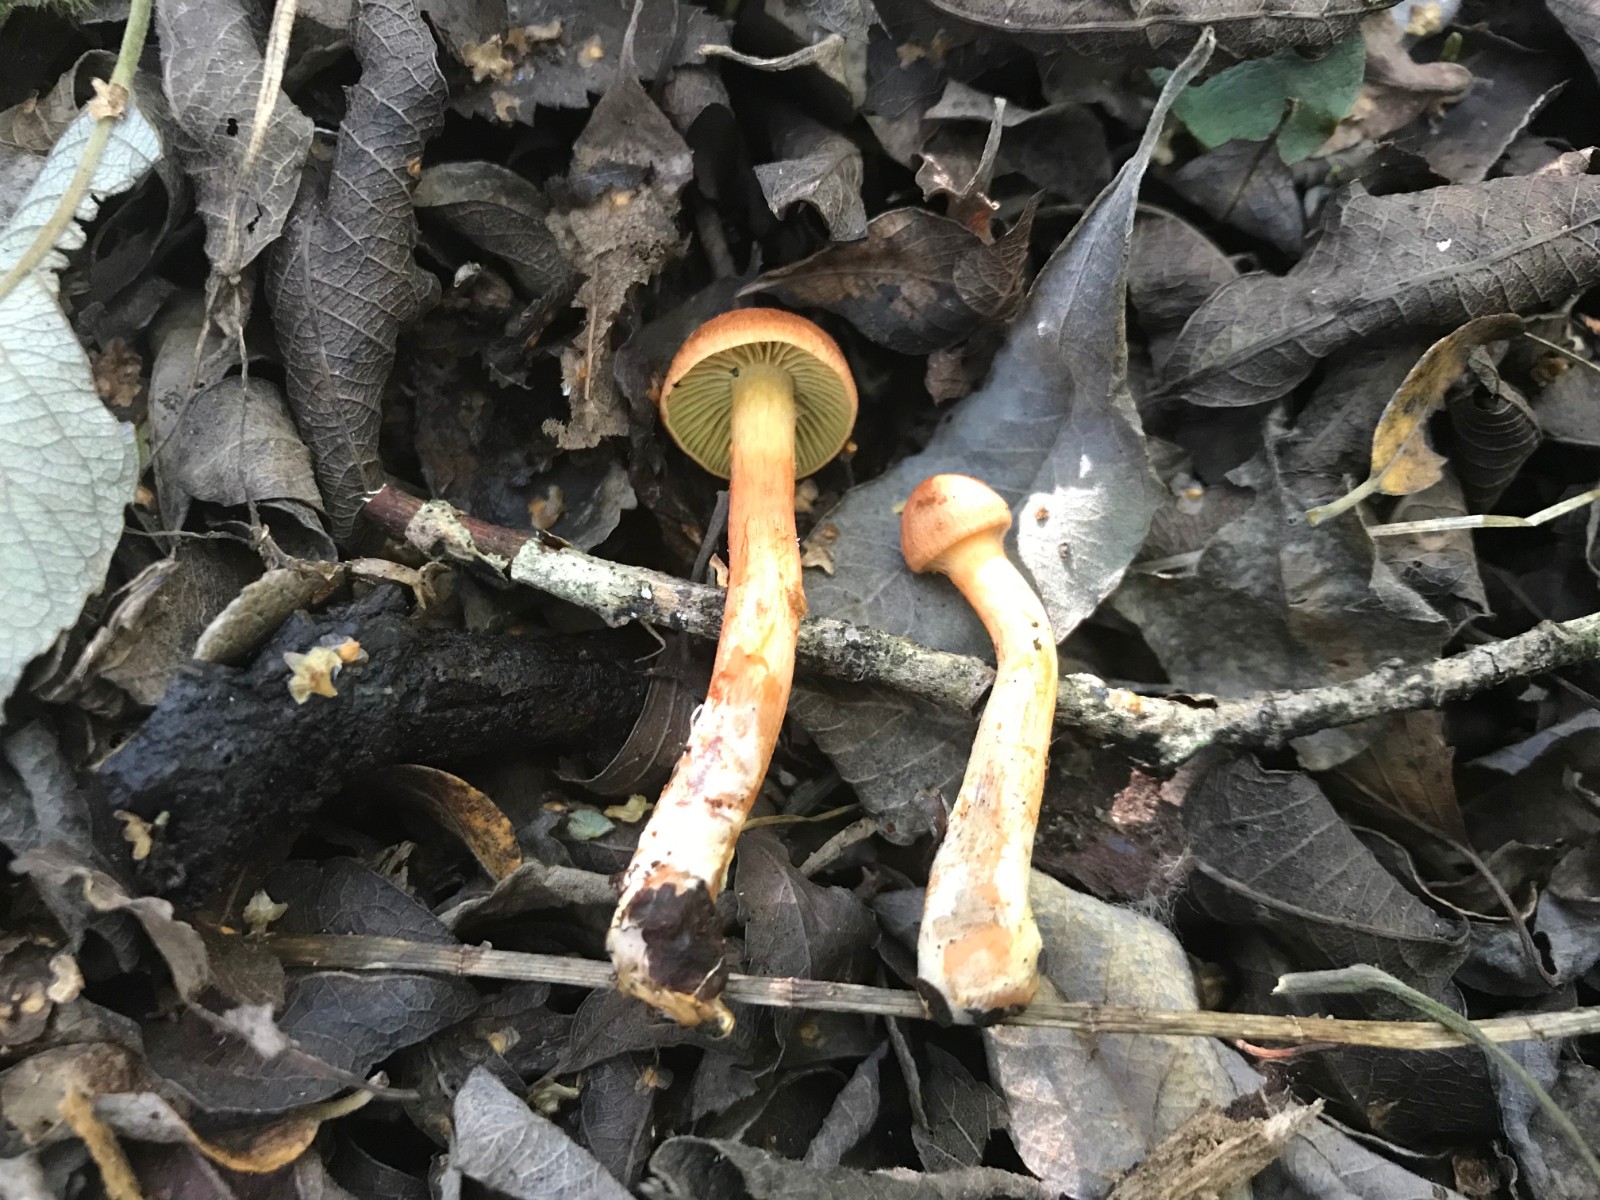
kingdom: Fungi
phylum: Basidiomycota
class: Agaricomycetes
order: Agaricales
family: Cortinariaceae
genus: Cortinarius
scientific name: Cortinarius uliginosus
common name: mose-slørhat
